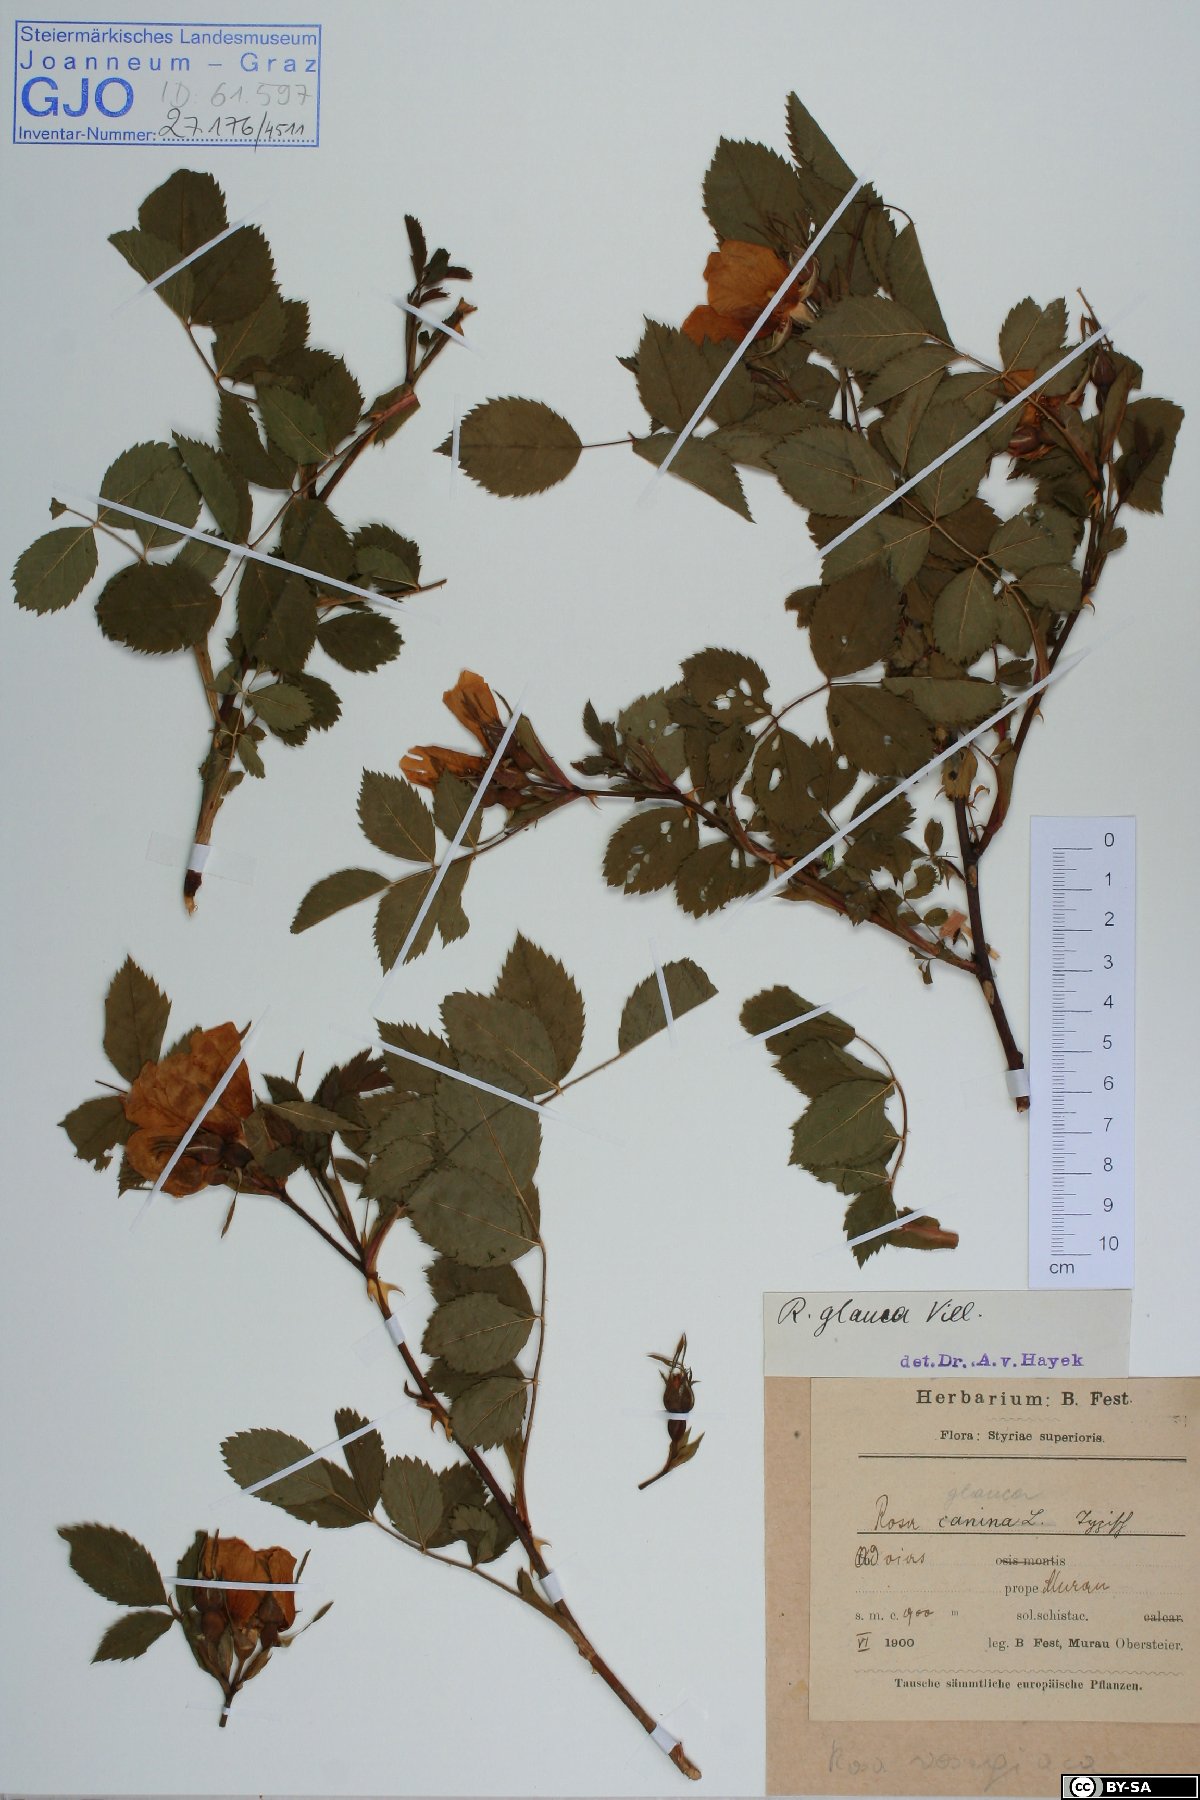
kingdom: Plantae
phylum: Tracheophyta
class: Magnoliopsida
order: Rosales
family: Rosaceae
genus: Rosa
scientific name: Rosa vosagiaca
